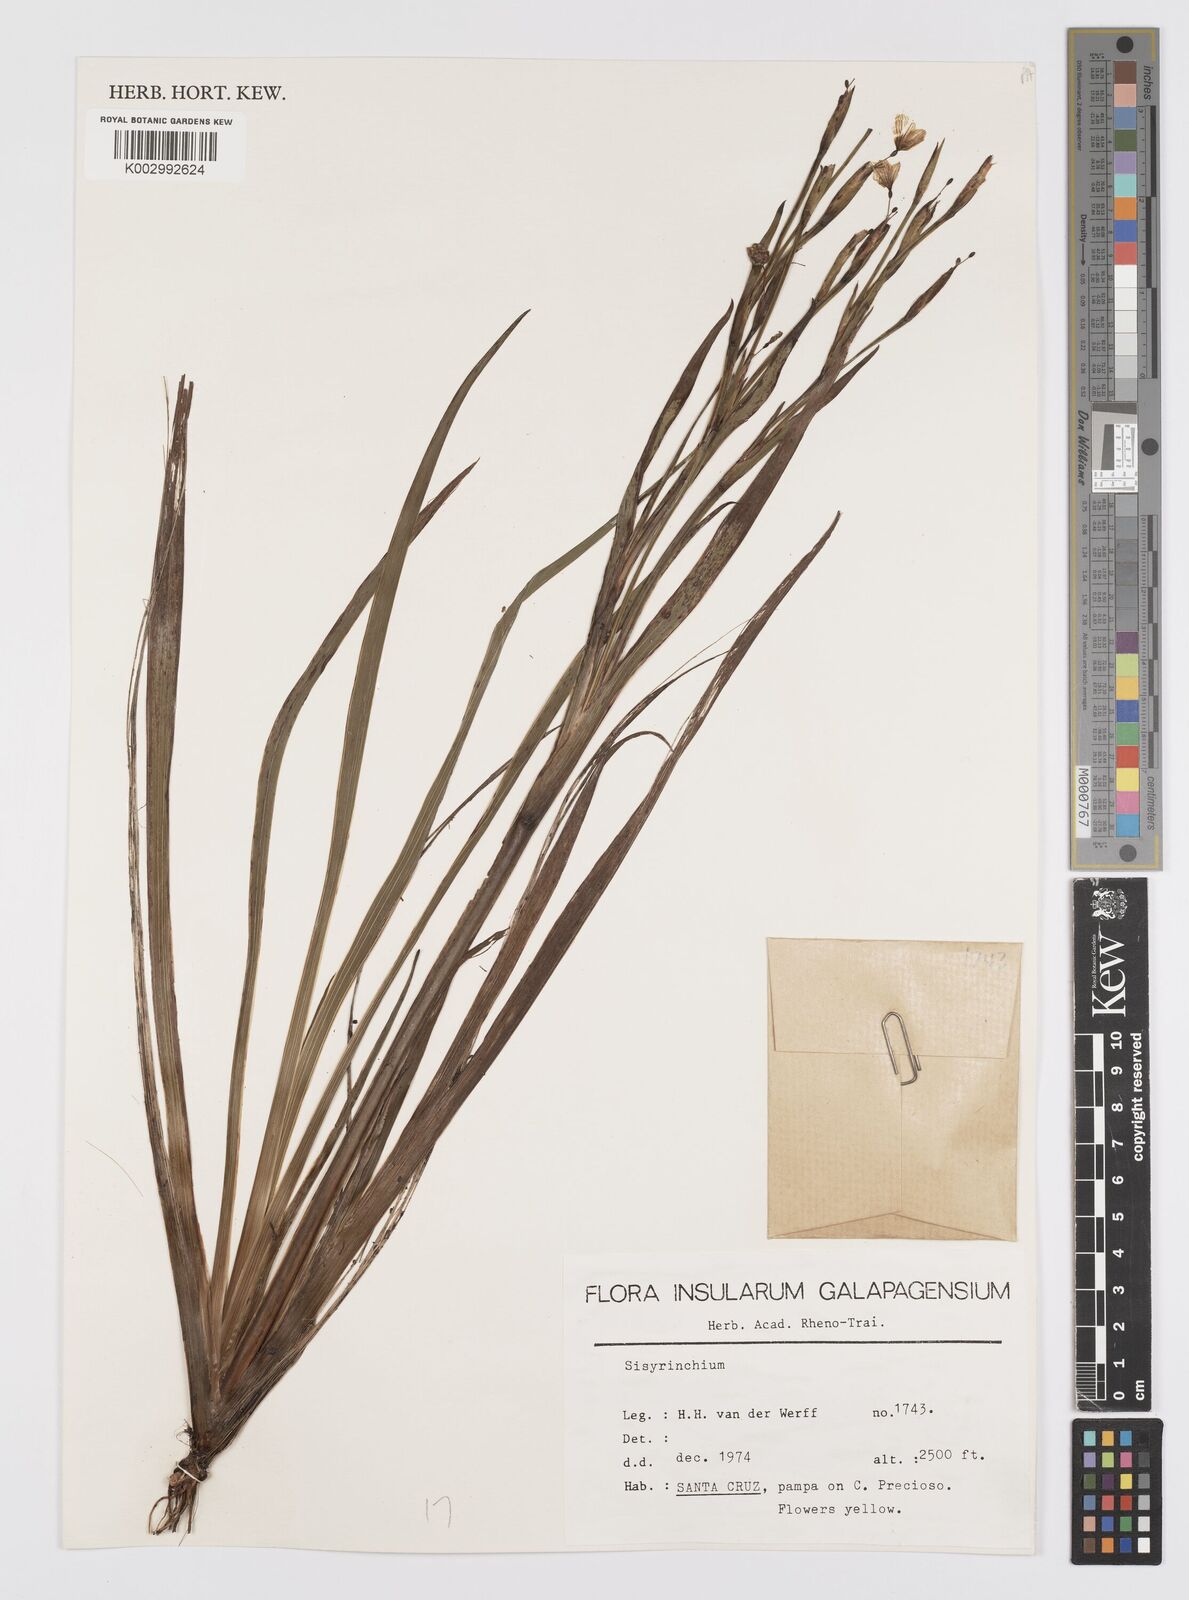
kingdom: Plantae
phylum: Tracheophyta
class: Liliopsida
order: Asparagales
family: Iridaceae
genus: Sisyrinchium
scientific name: Sisyrinchium galapagense
